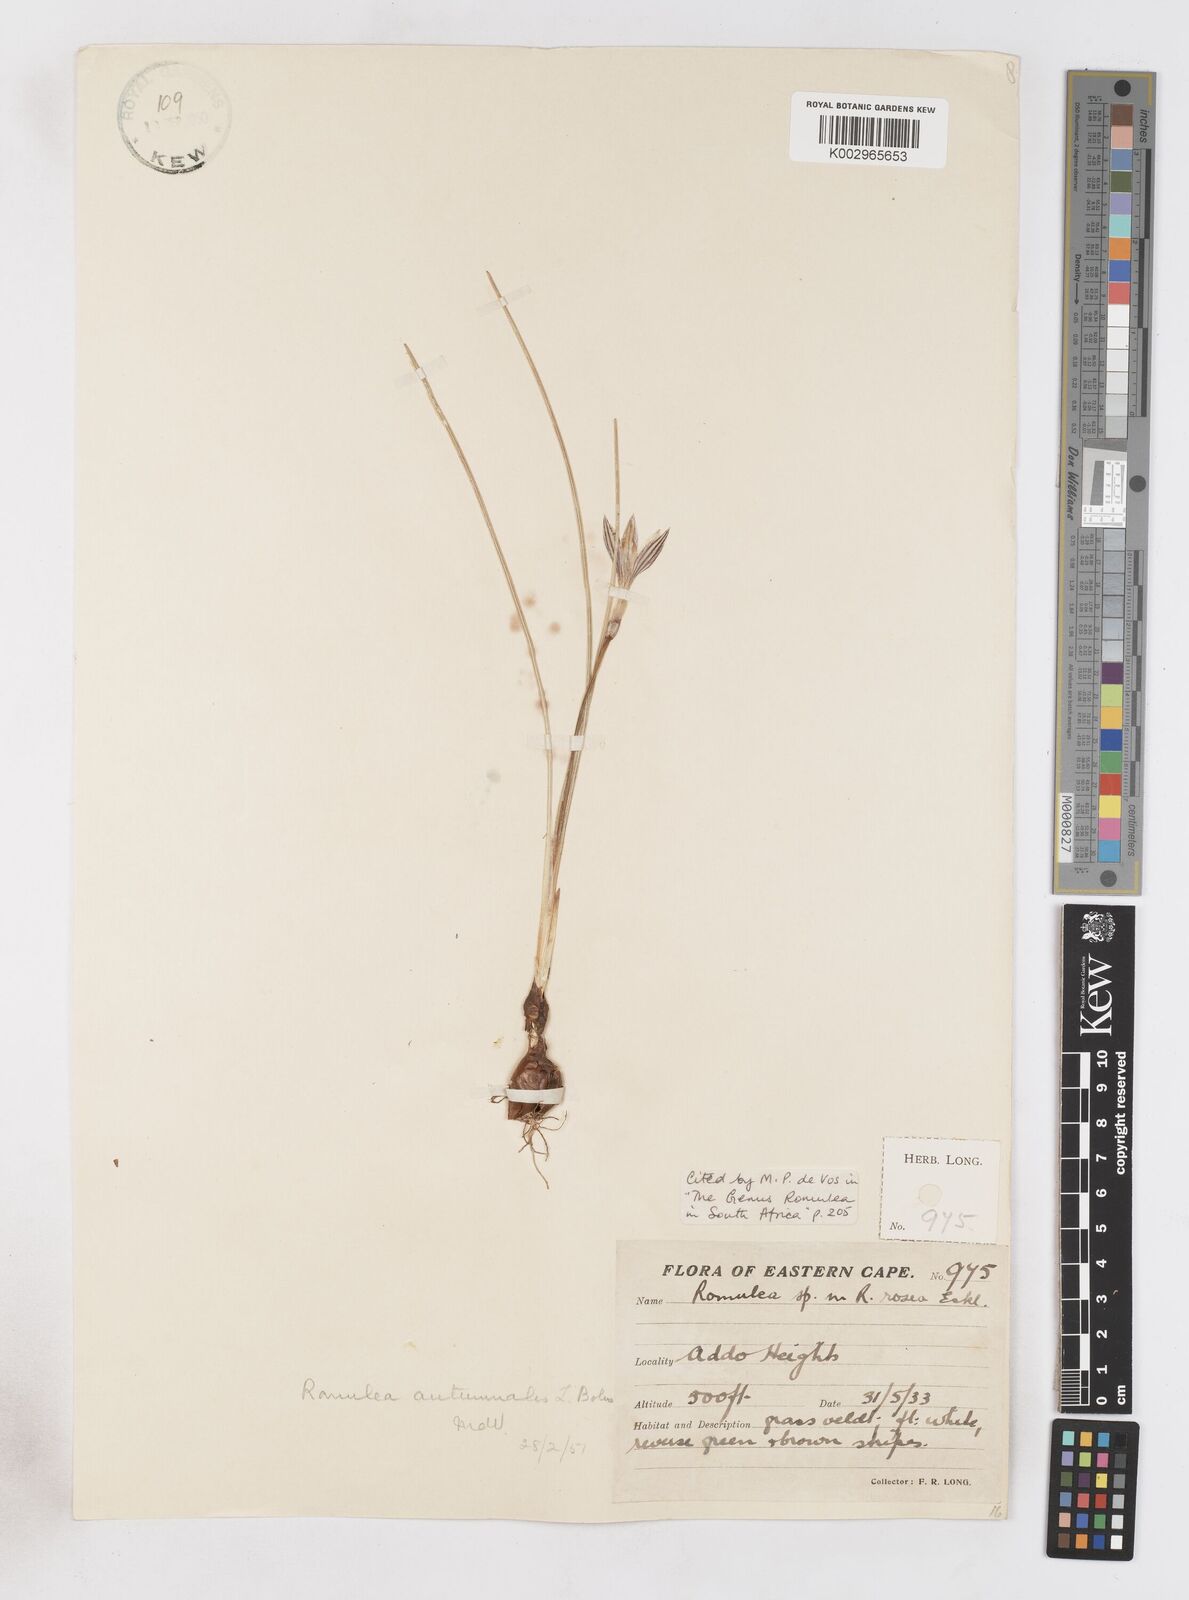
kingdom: Plantae
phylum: Tracheophyta
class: Liliopsida
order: Asparagales
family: Iridaceae
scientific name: Iridaceae
